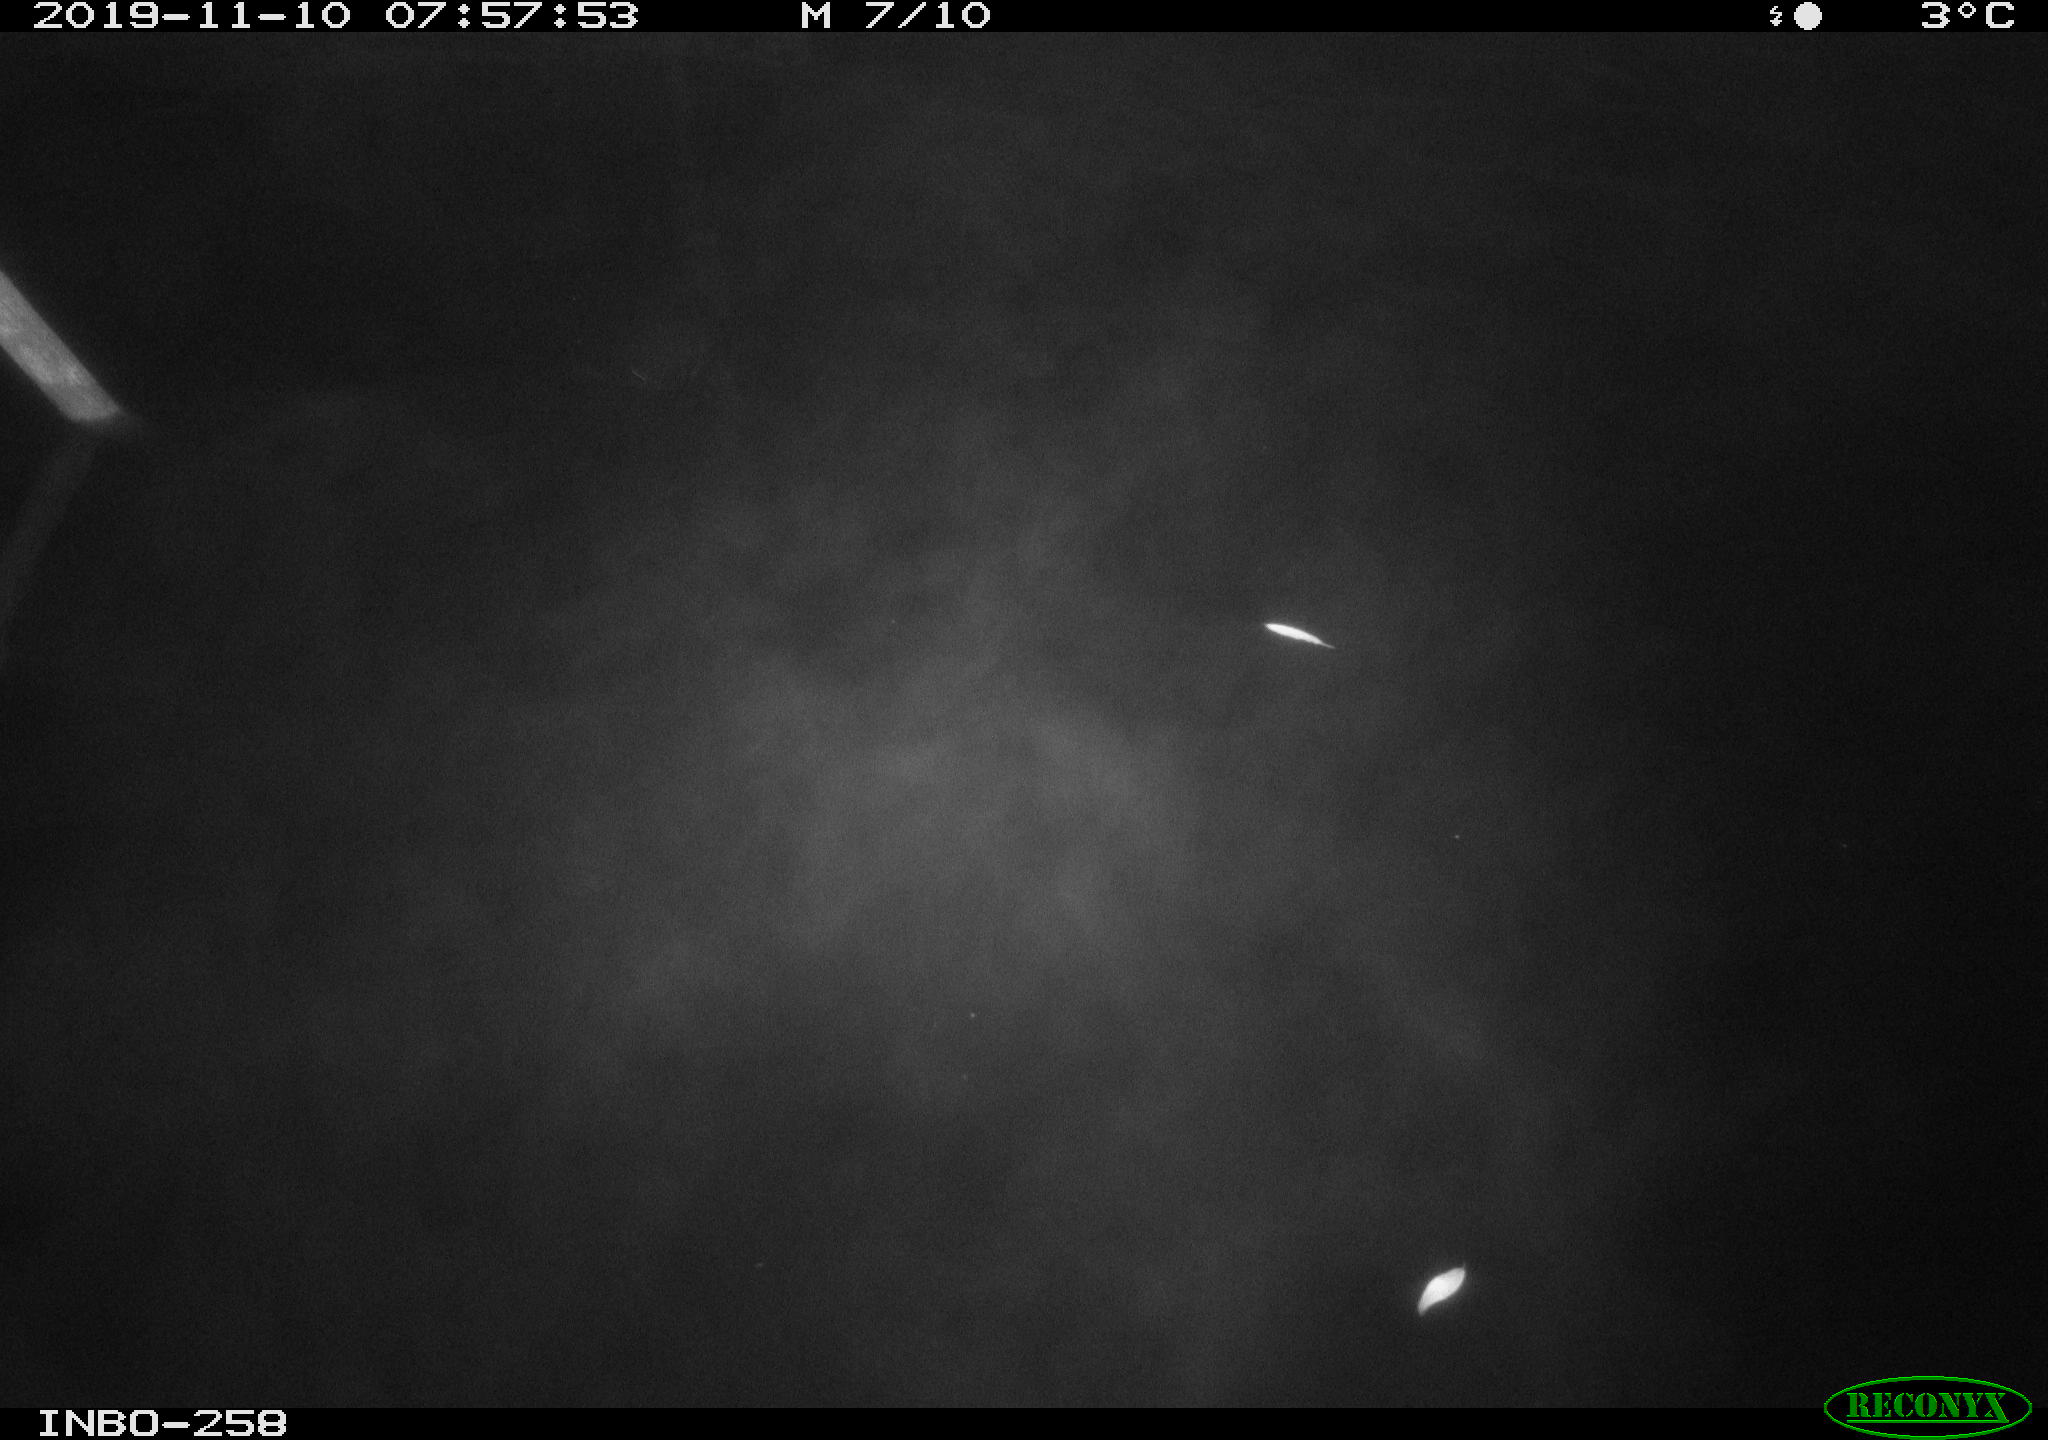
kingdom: Animalia
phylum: Chordata
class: Mammalia
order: Rodentia
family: Muridae
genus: Rattus
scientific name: Rattus norvegicus
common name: Brown rat
